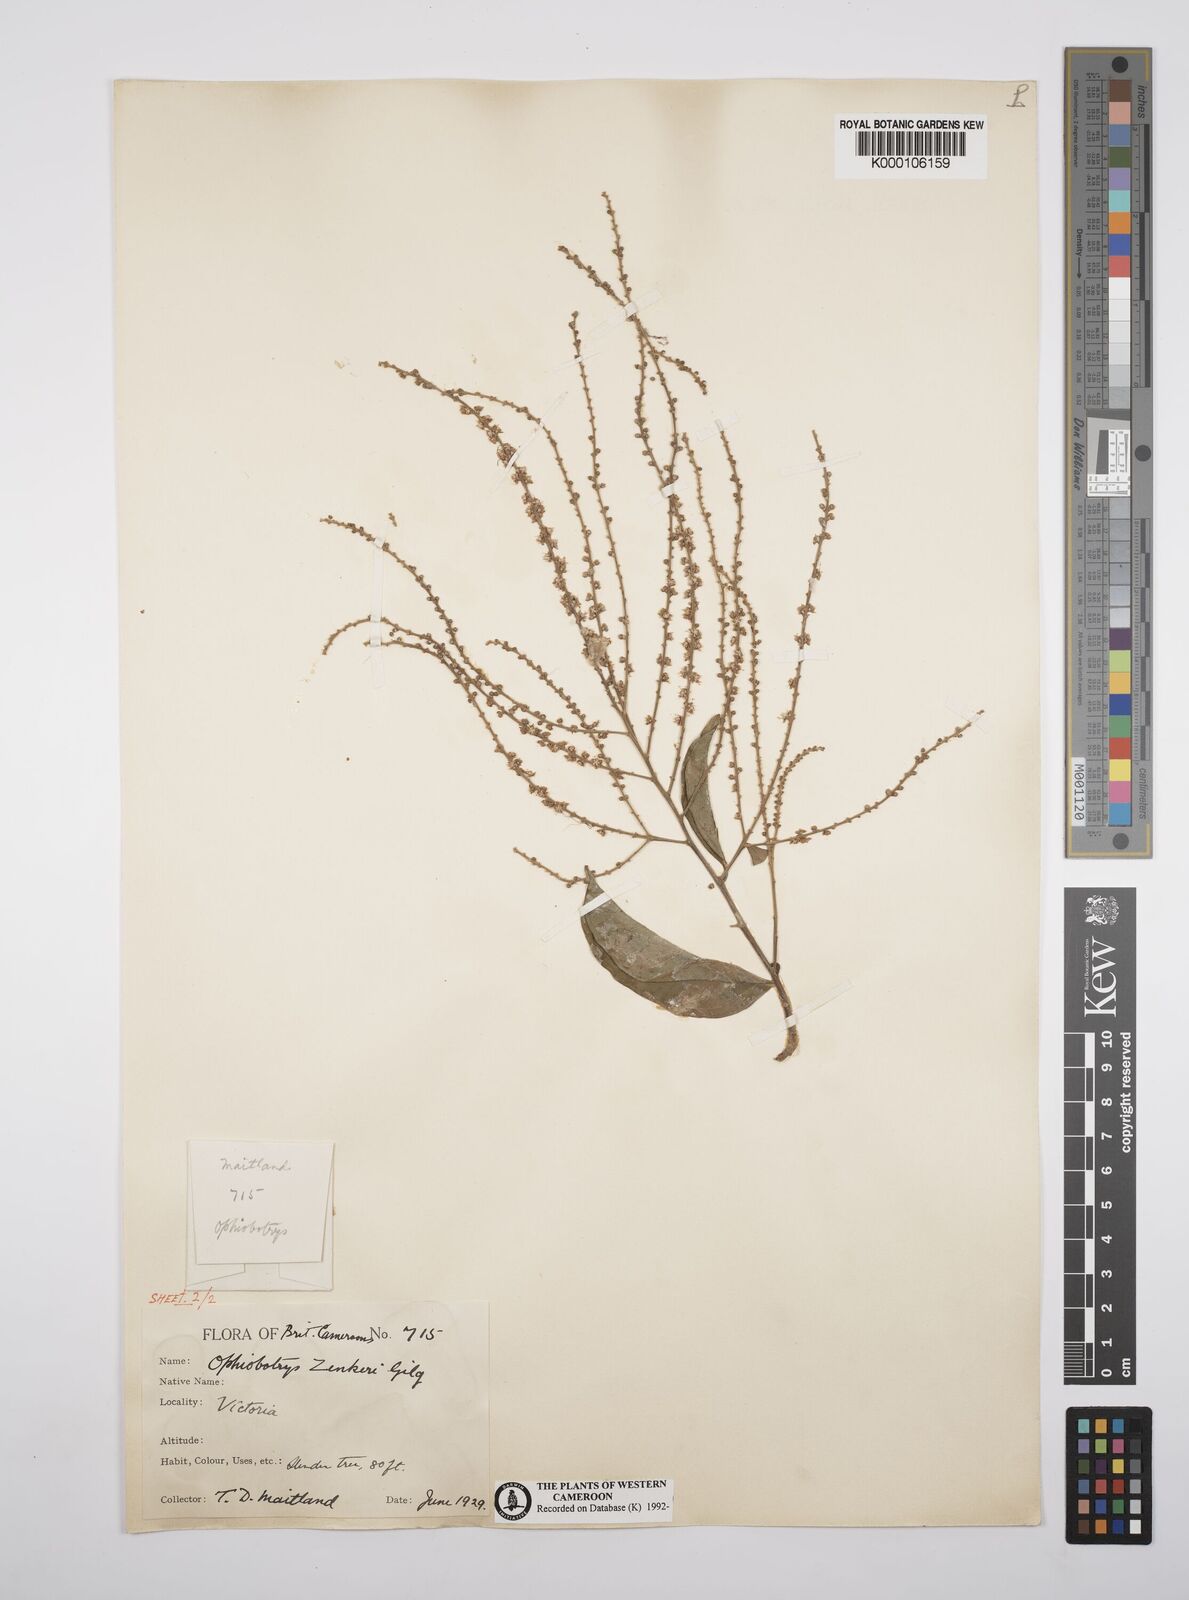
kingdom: Plantae
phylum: Tracheophyta
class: Magnoliopsida
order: Malpighiales
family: Salicaceae
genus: Ophiobotrys
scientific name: Ophiobotrys zenkeri
